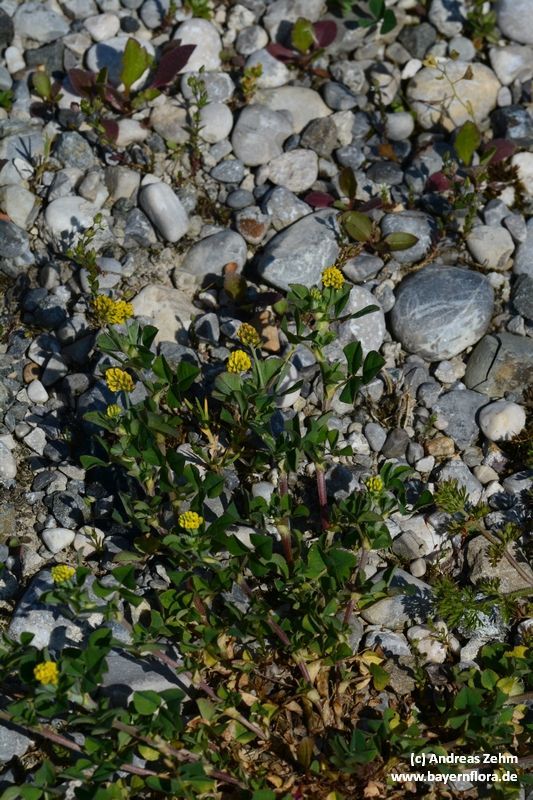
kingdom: Plantae
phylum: Tracheophyta
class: Magnoliopsida
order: Fabales
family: Fabaceae
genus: Trifolium
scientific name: Trifolium campestre
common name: Field clover
